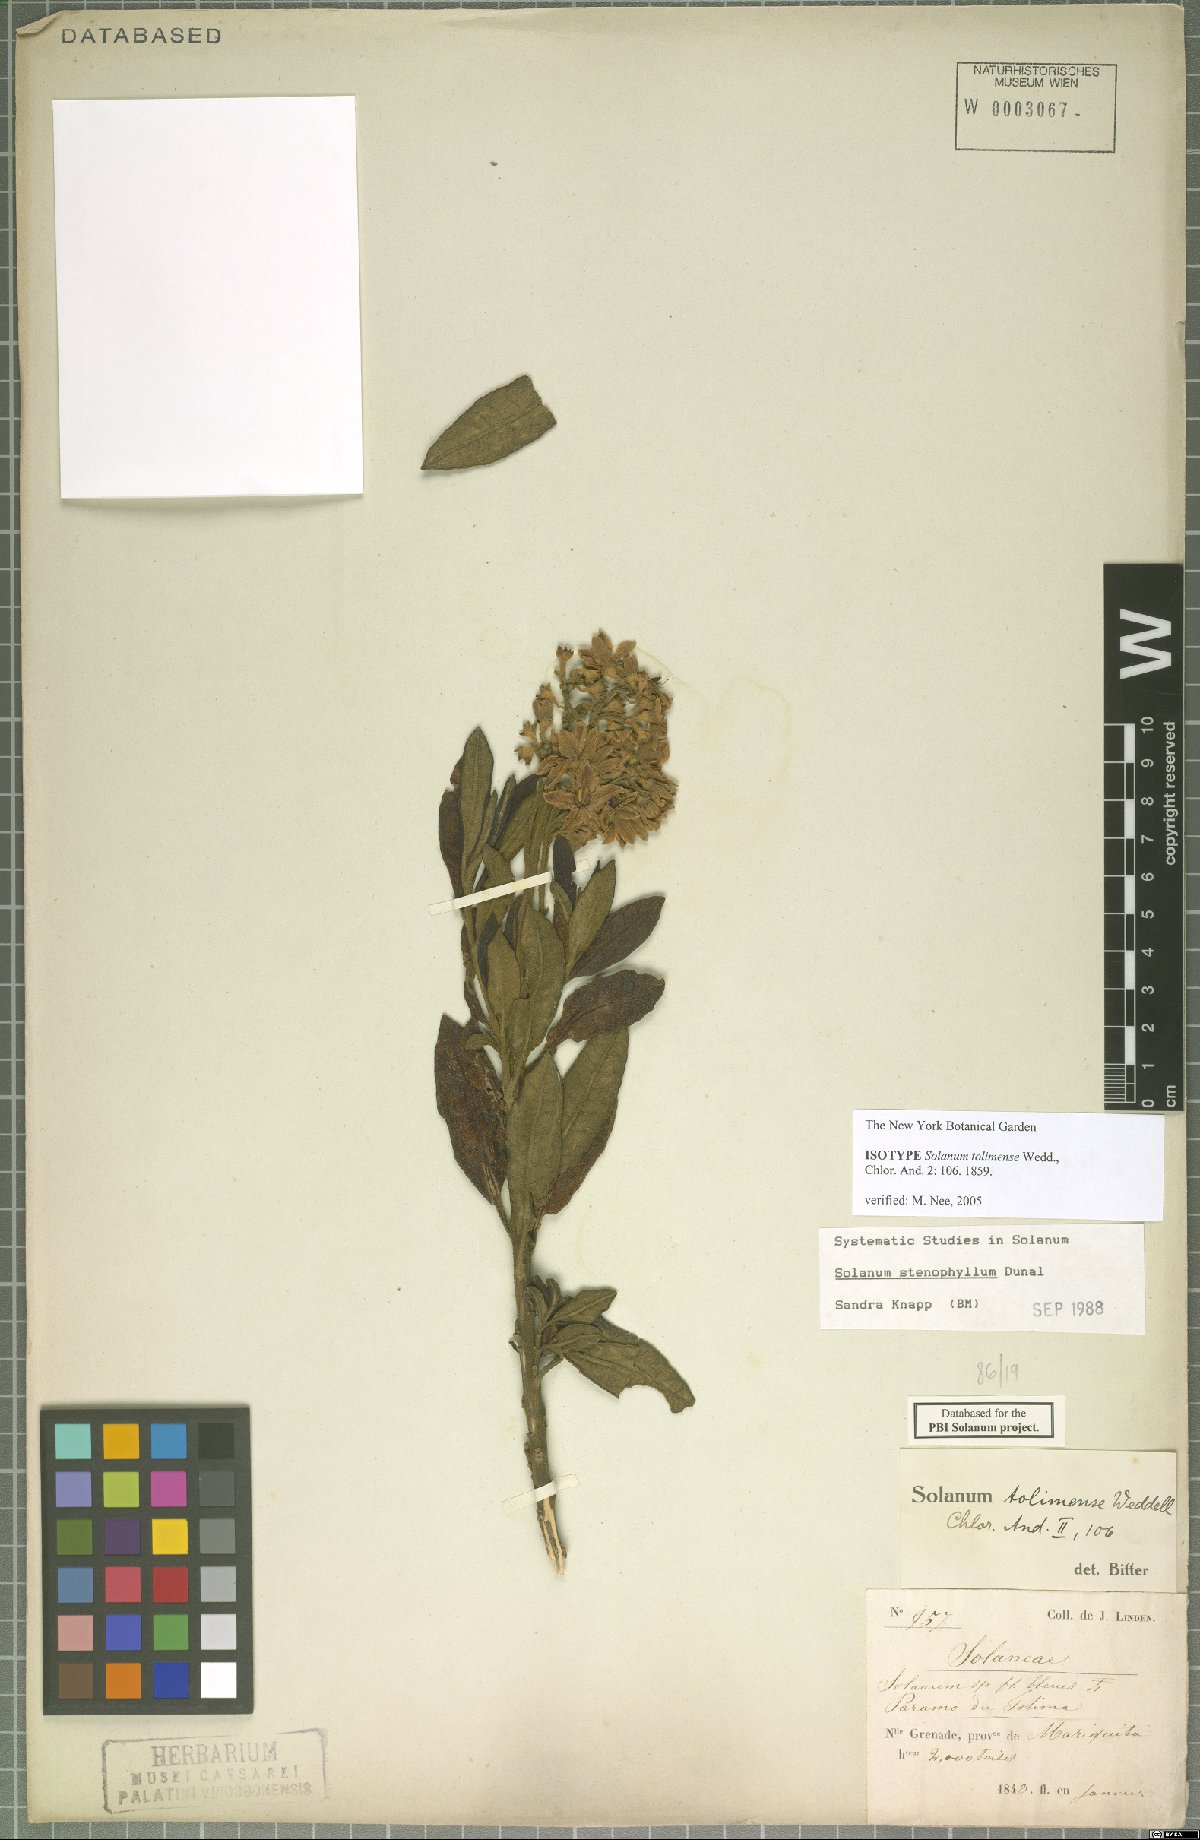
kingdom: Plantae
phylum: Tracheophyta
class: Magnoliopsida
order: Solanales
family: Solanaceae
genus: Solanum
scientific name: Solanum stenophyllum
